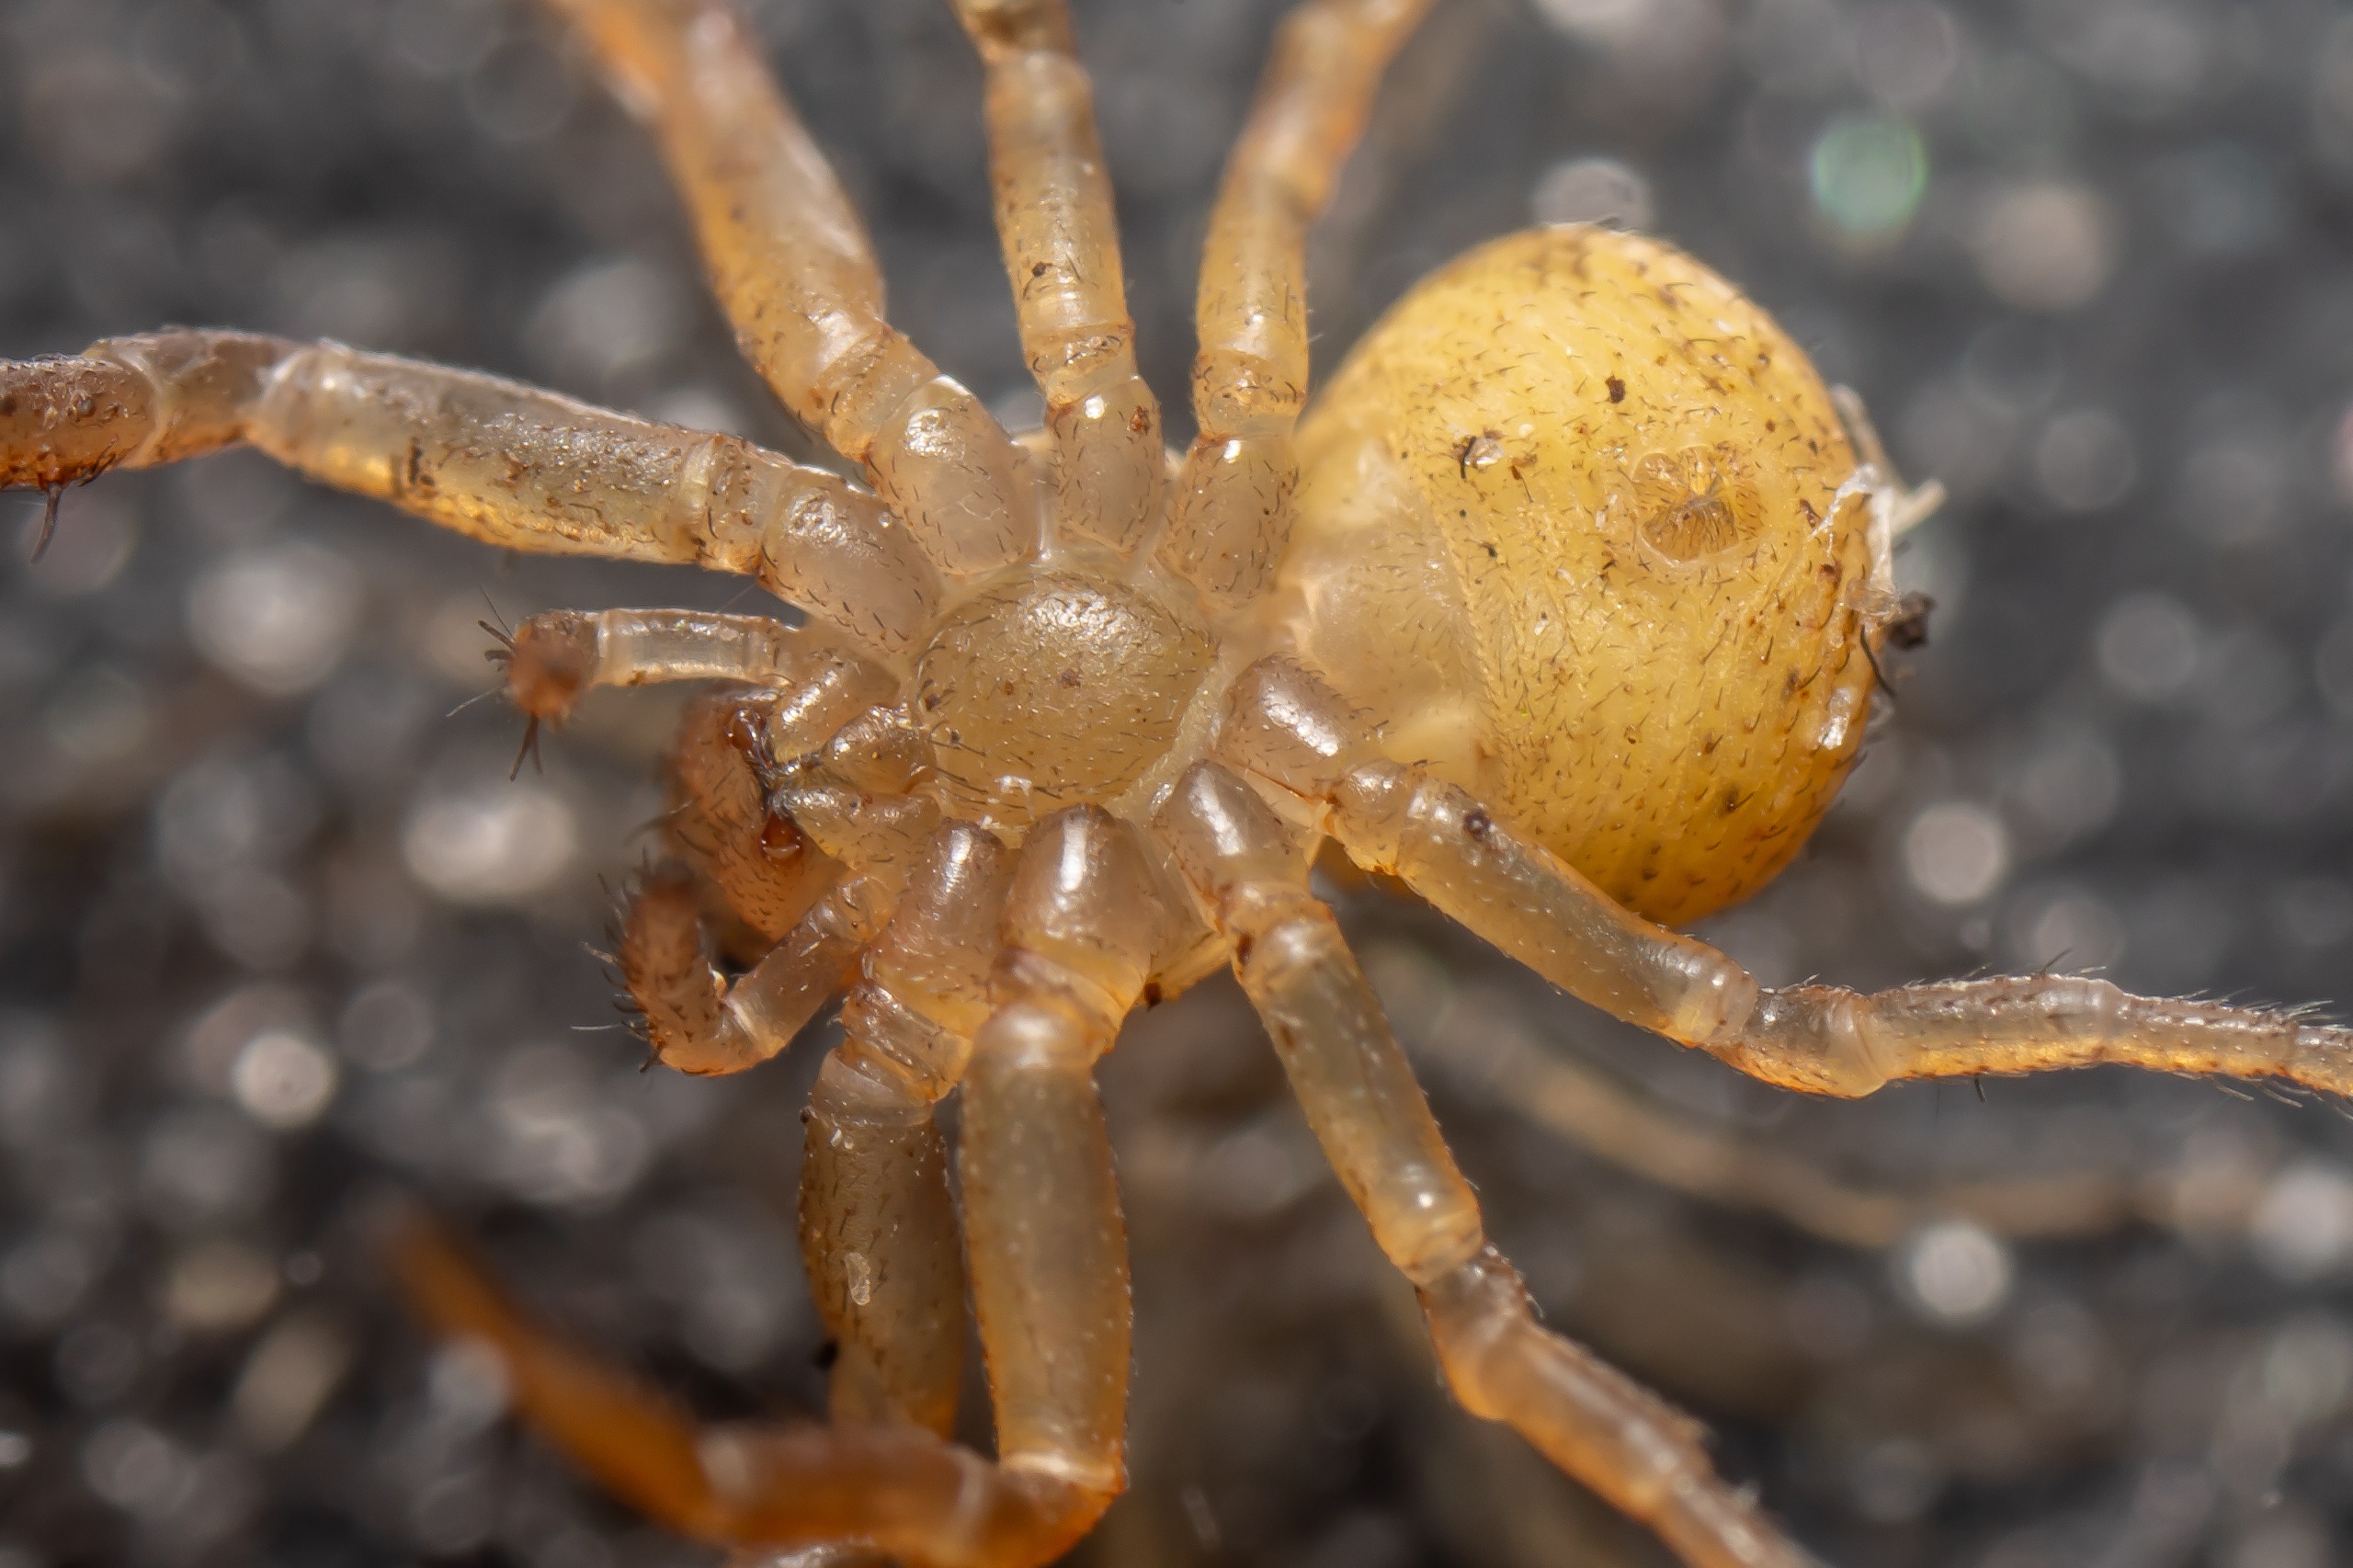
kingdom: Animalia
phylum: Arthropoda
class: Arachnida
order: Araneae
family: Thomisidae
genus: Ozyptila
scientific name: Ozyptila trux
